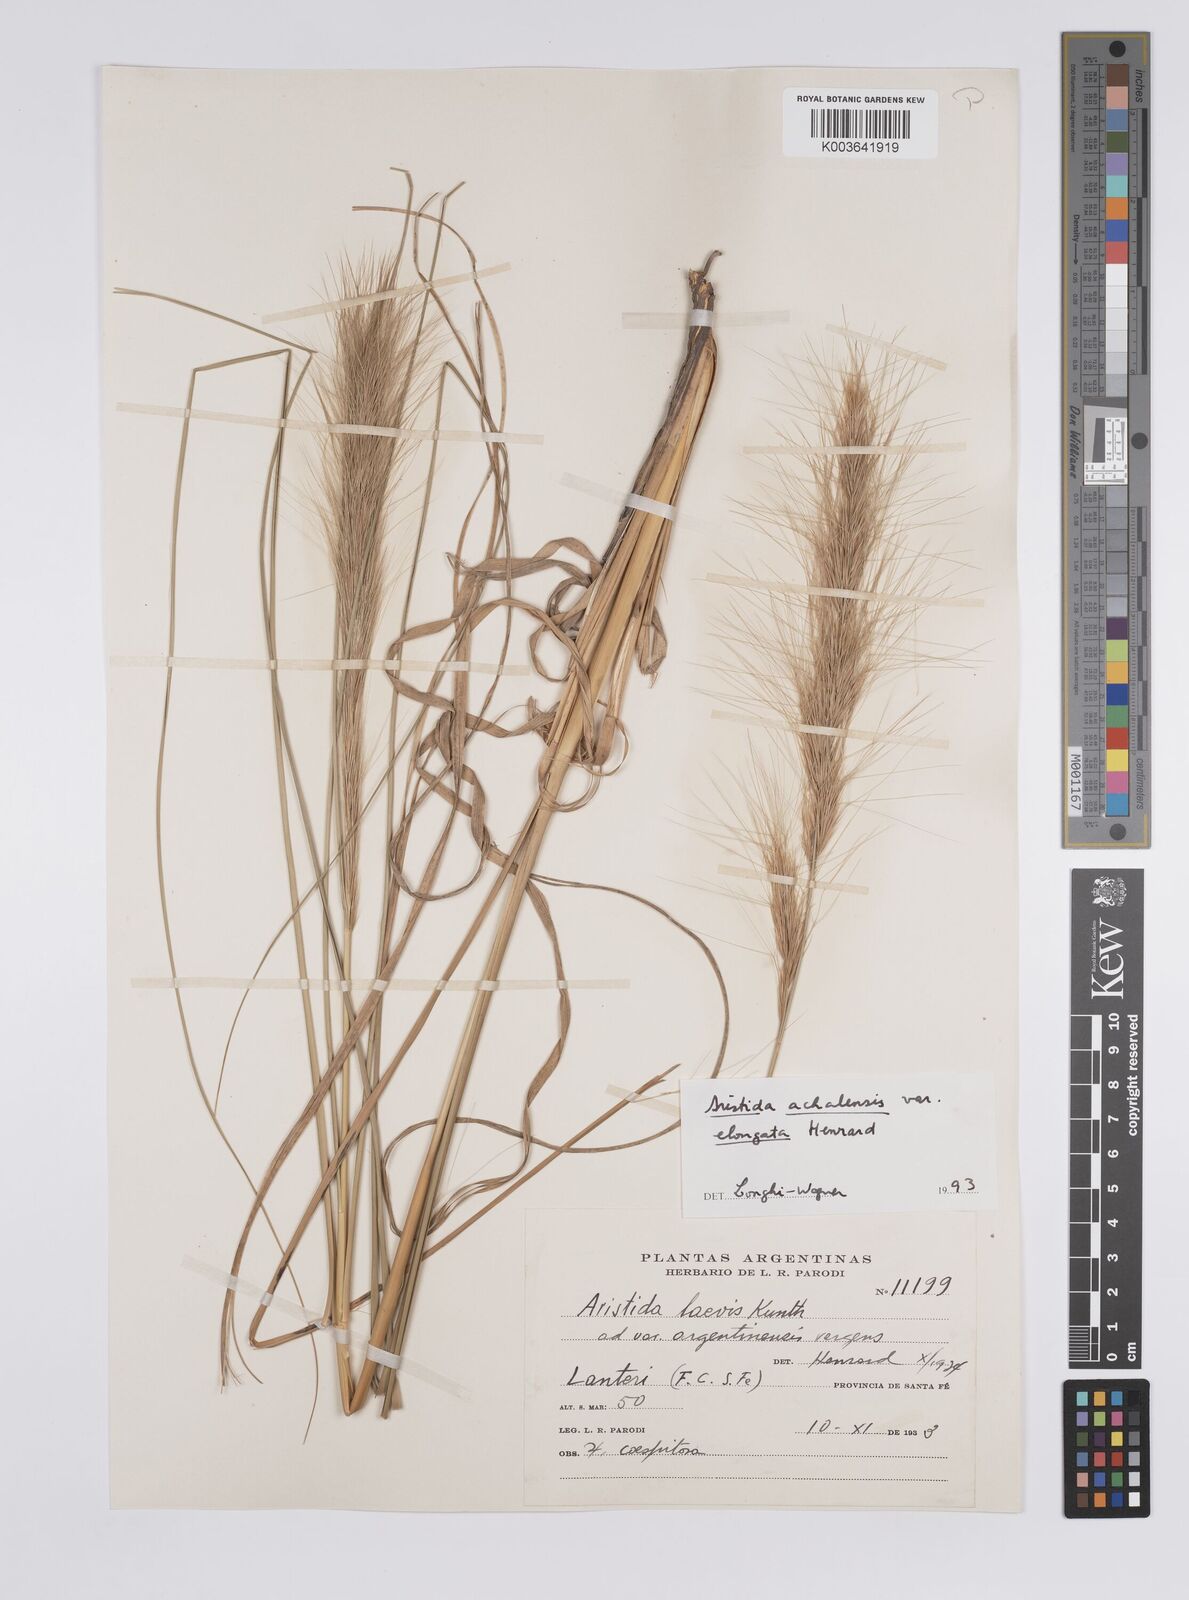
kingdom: Plantae
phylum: Tracheophyta
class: Liliopsida
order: Poales
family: Poaceae
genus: Aristida
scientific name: Aristida achalensis
